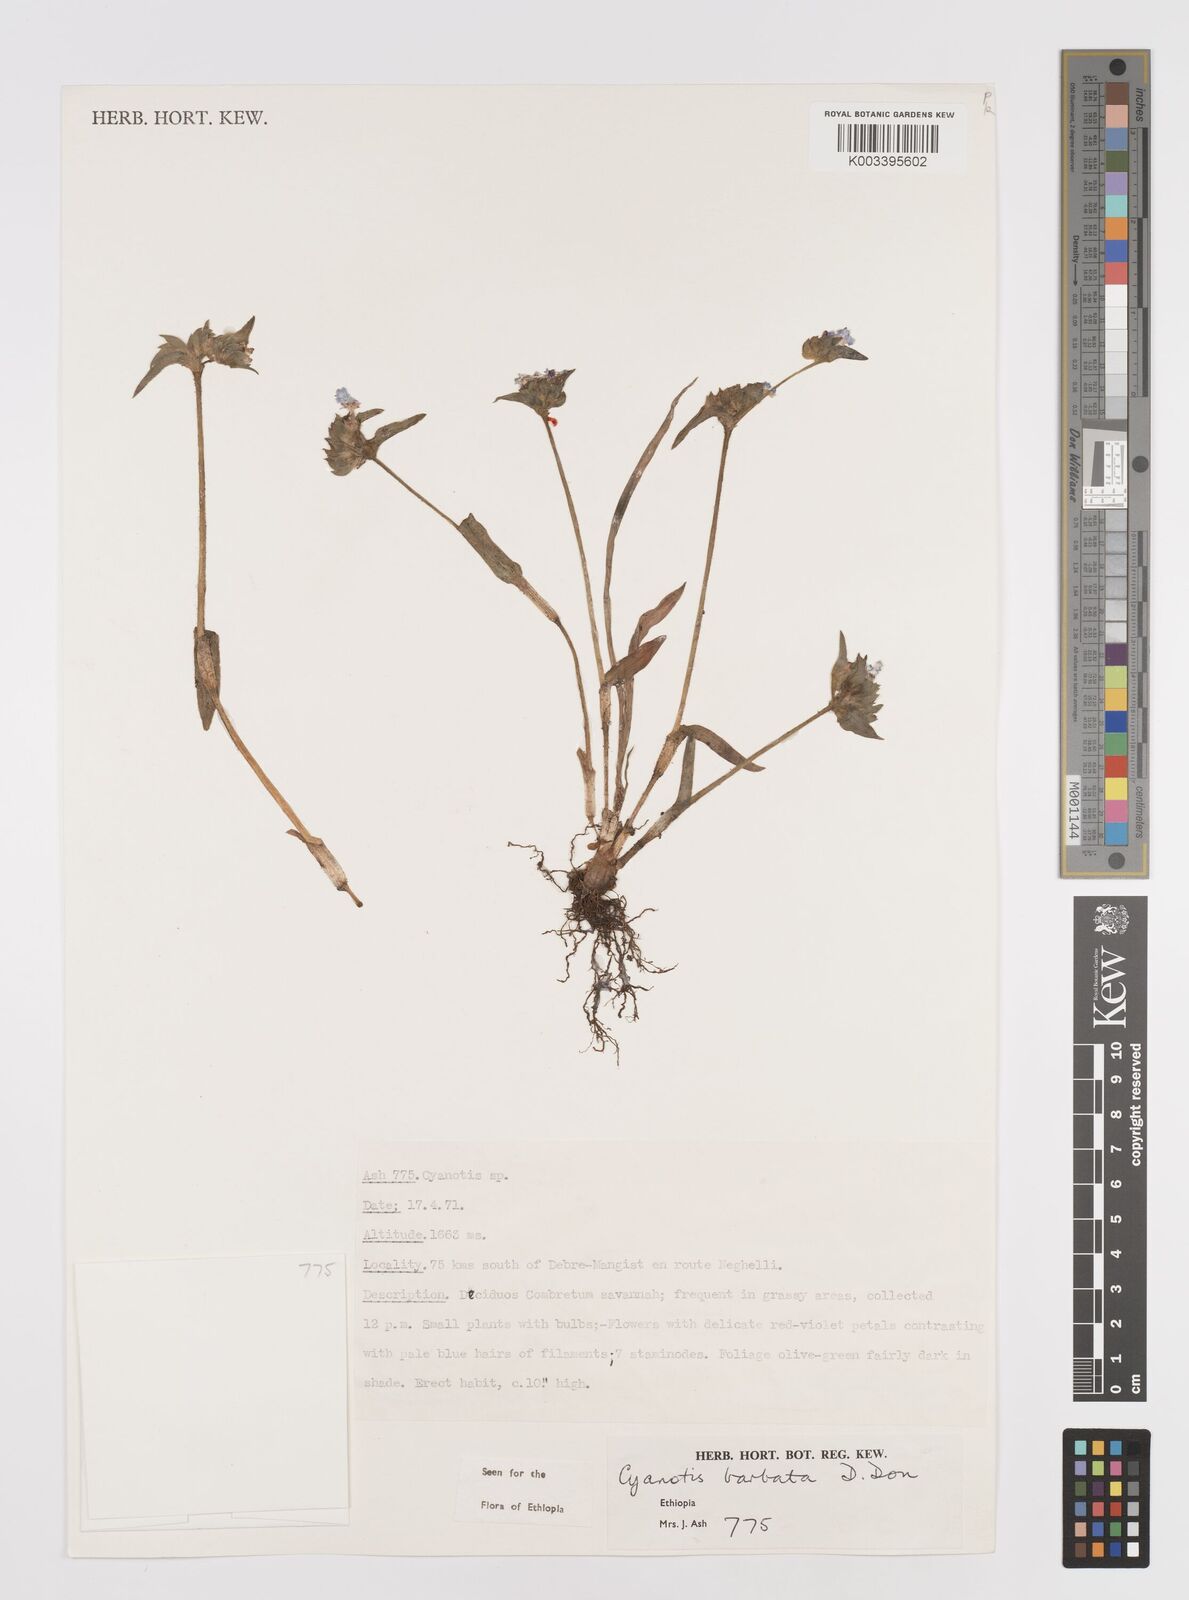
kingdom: Plantae
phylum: Tracheophyta
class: Liliopsida
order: Commelinales
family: Commelinaceae
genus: Cyanotis
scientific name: Cyanotis vaga
